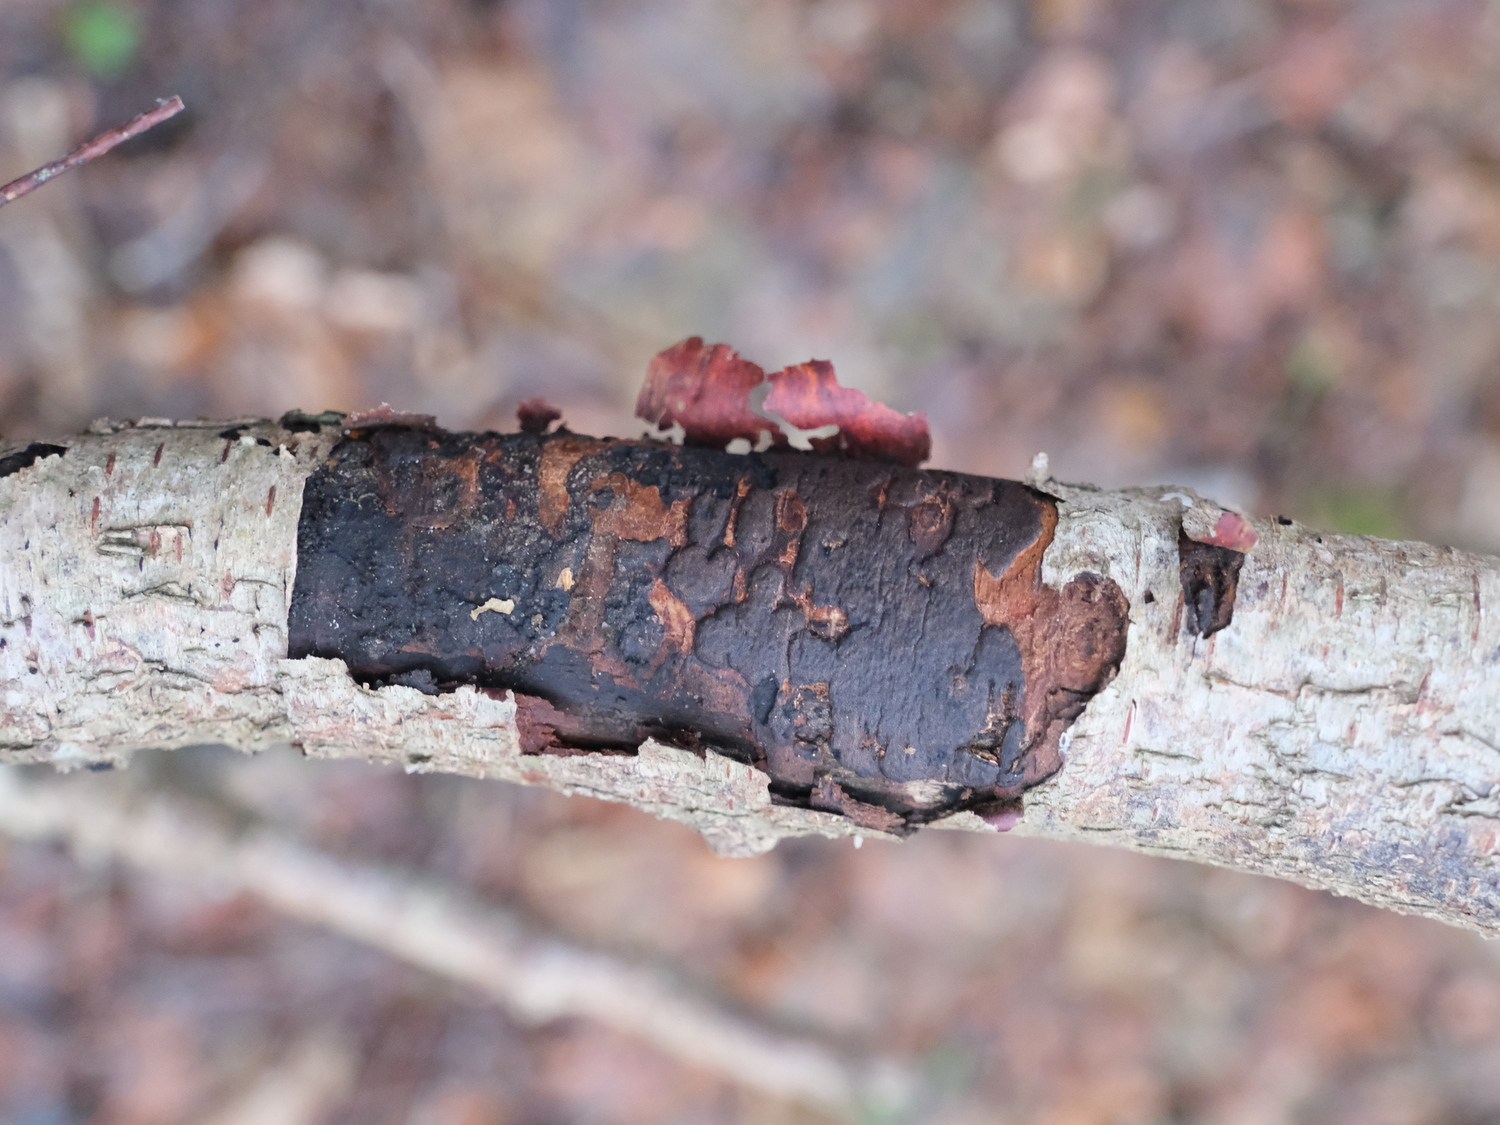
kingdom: Fungi
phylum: Ascomycota
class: Sordariomycetes
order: Xylariales
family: Diatrypaceae
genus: Diatrype
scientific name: Diatrype
